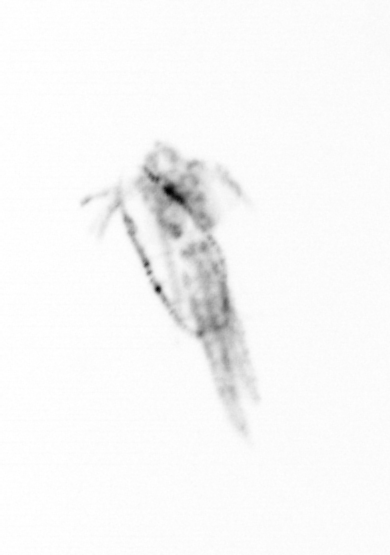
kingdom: Animalia
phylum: Arthropoda
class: Copepoda
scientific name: Copepoda
